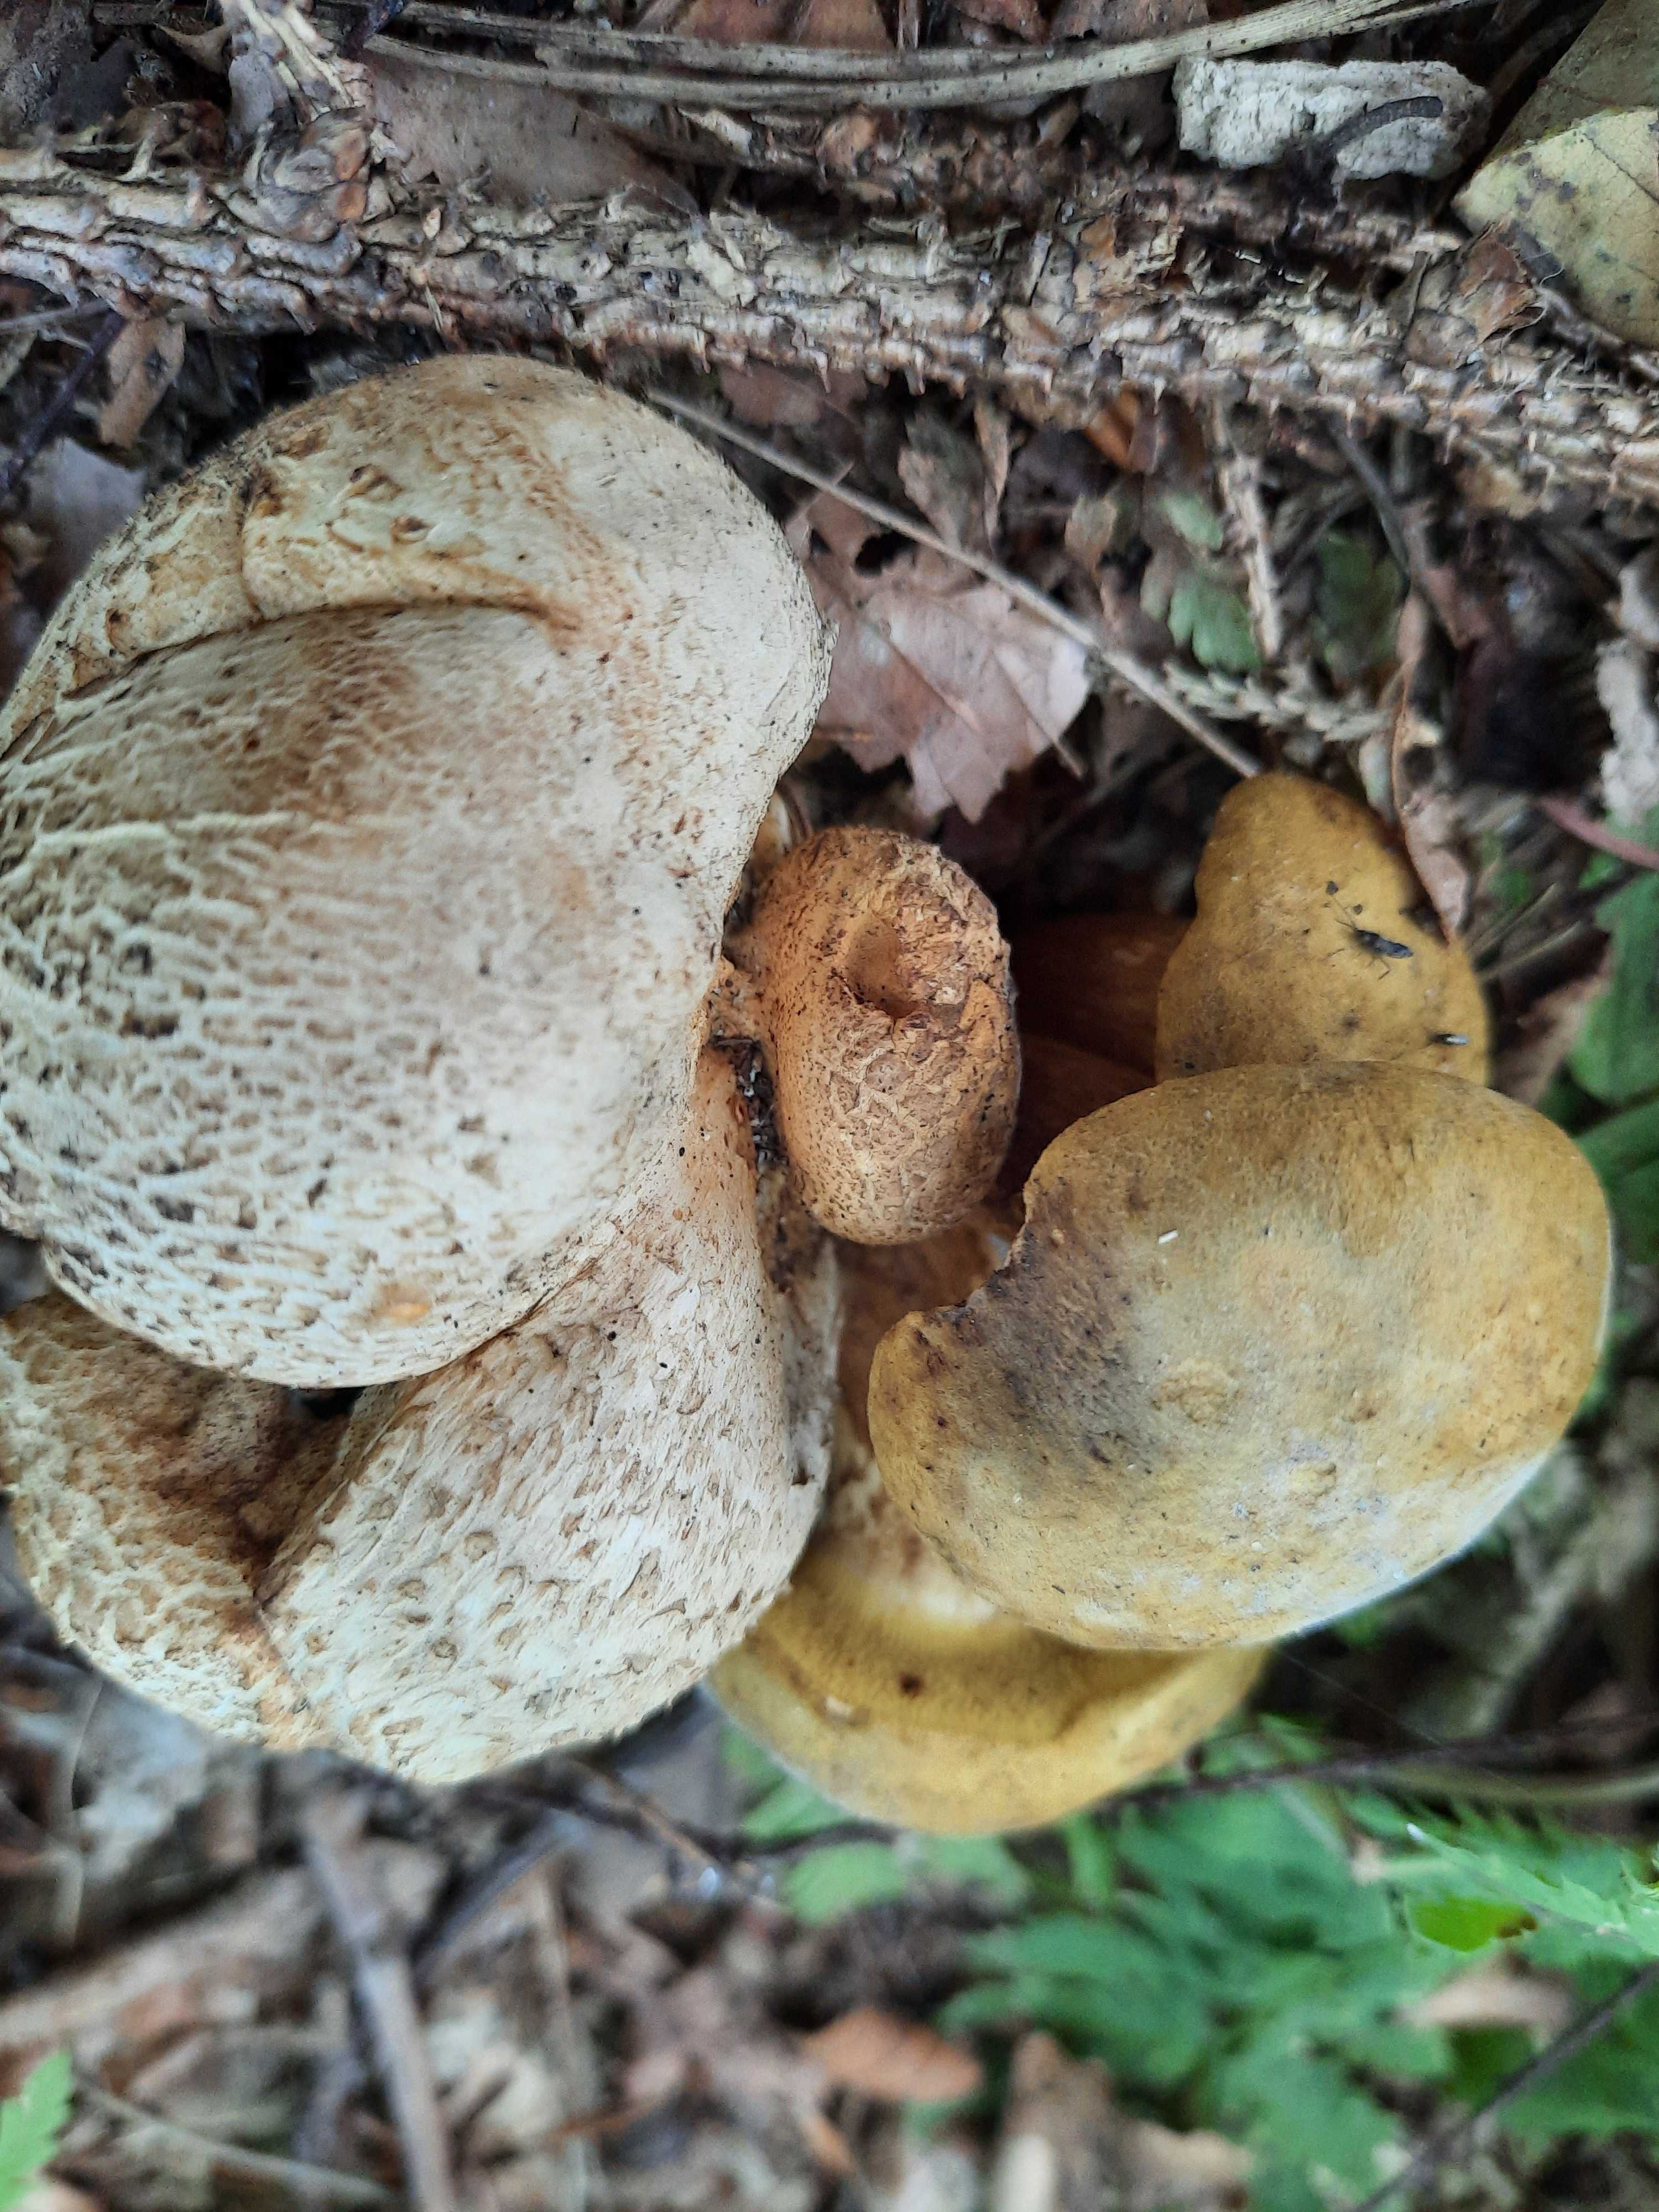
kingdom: Fungi
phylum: Basidiomycota
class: Agaricomycetes
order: Boletales
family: Boletaceae
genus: Pseudoboletus
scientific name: Pseudoboletus parasiticus
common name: snyltende rørhat
